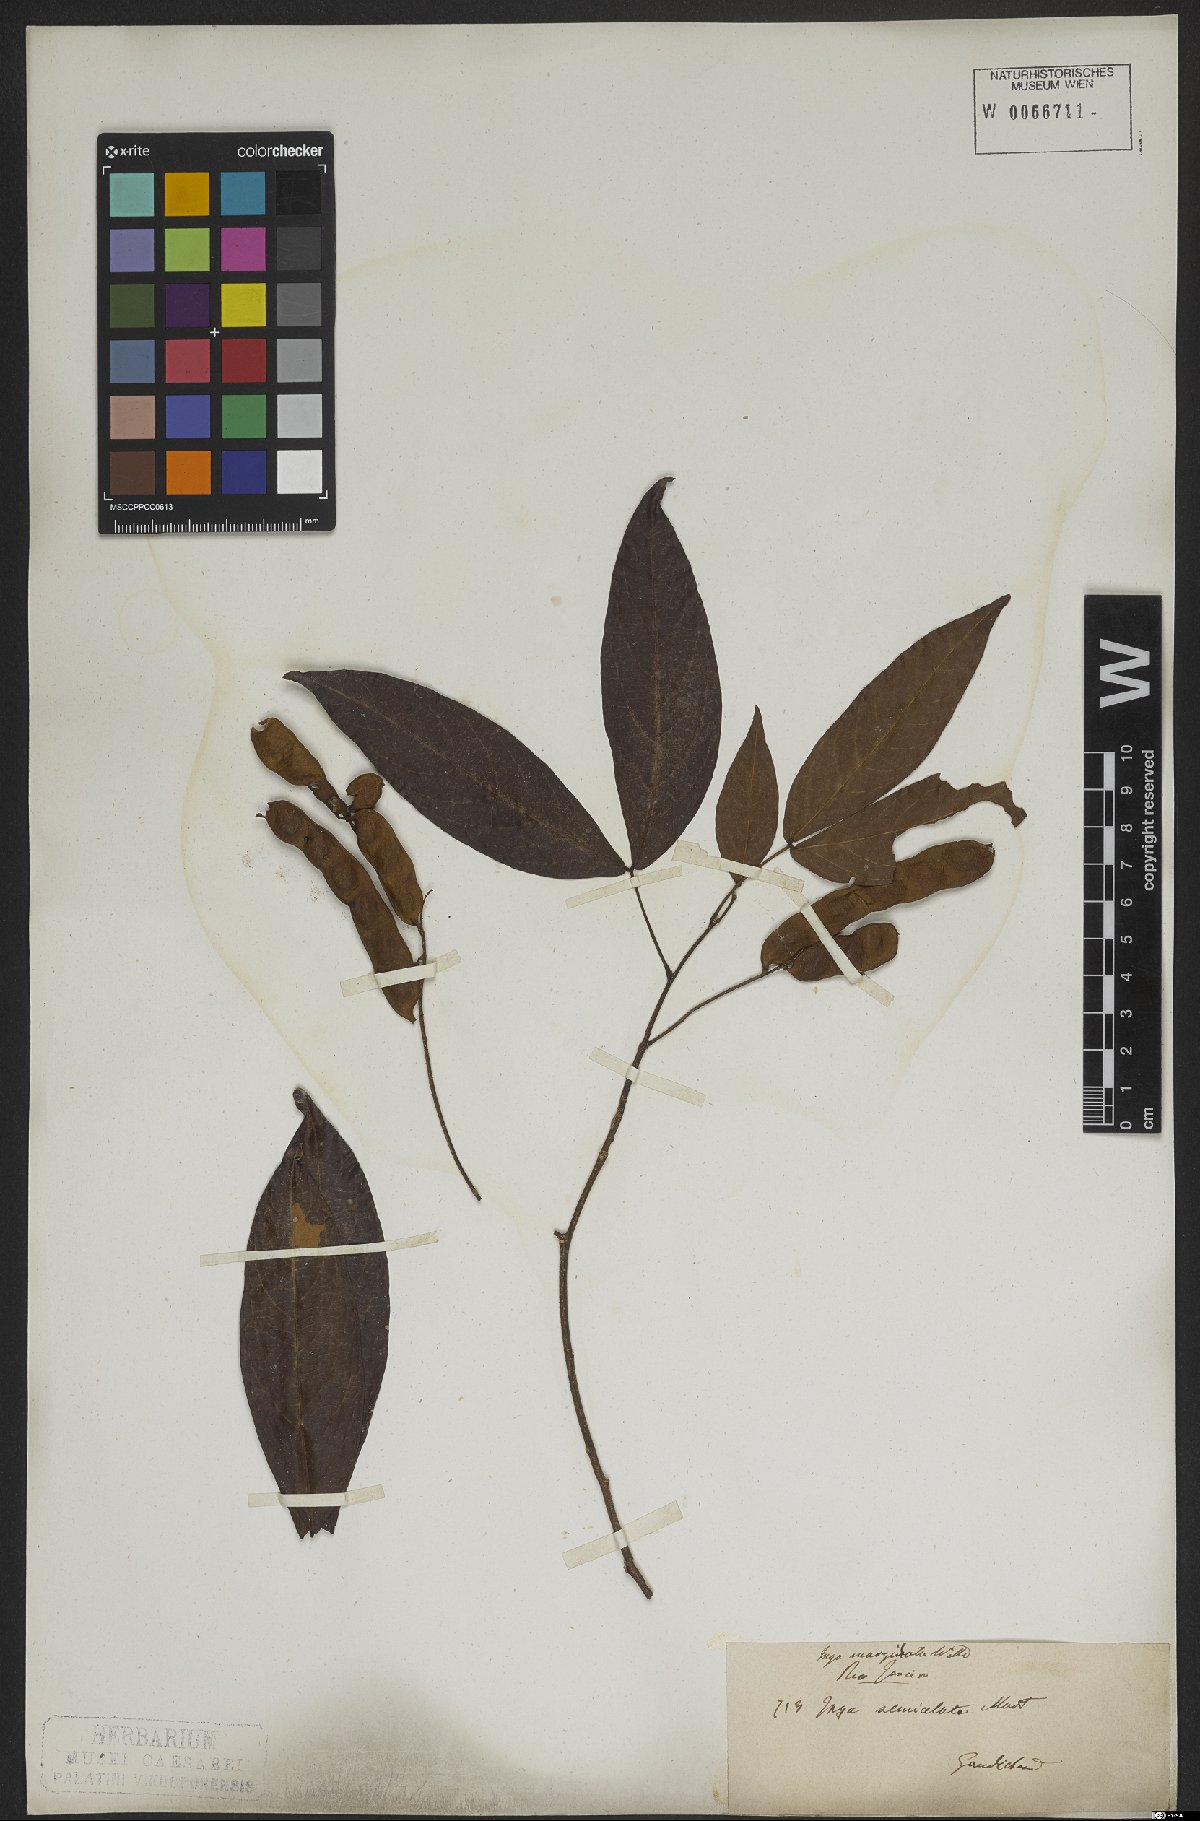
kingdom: Plantae
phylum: Tracheophyta
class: Magnoliopsida
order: Fabales
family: Fabaceae
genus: Inga
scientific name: Inga marginata
